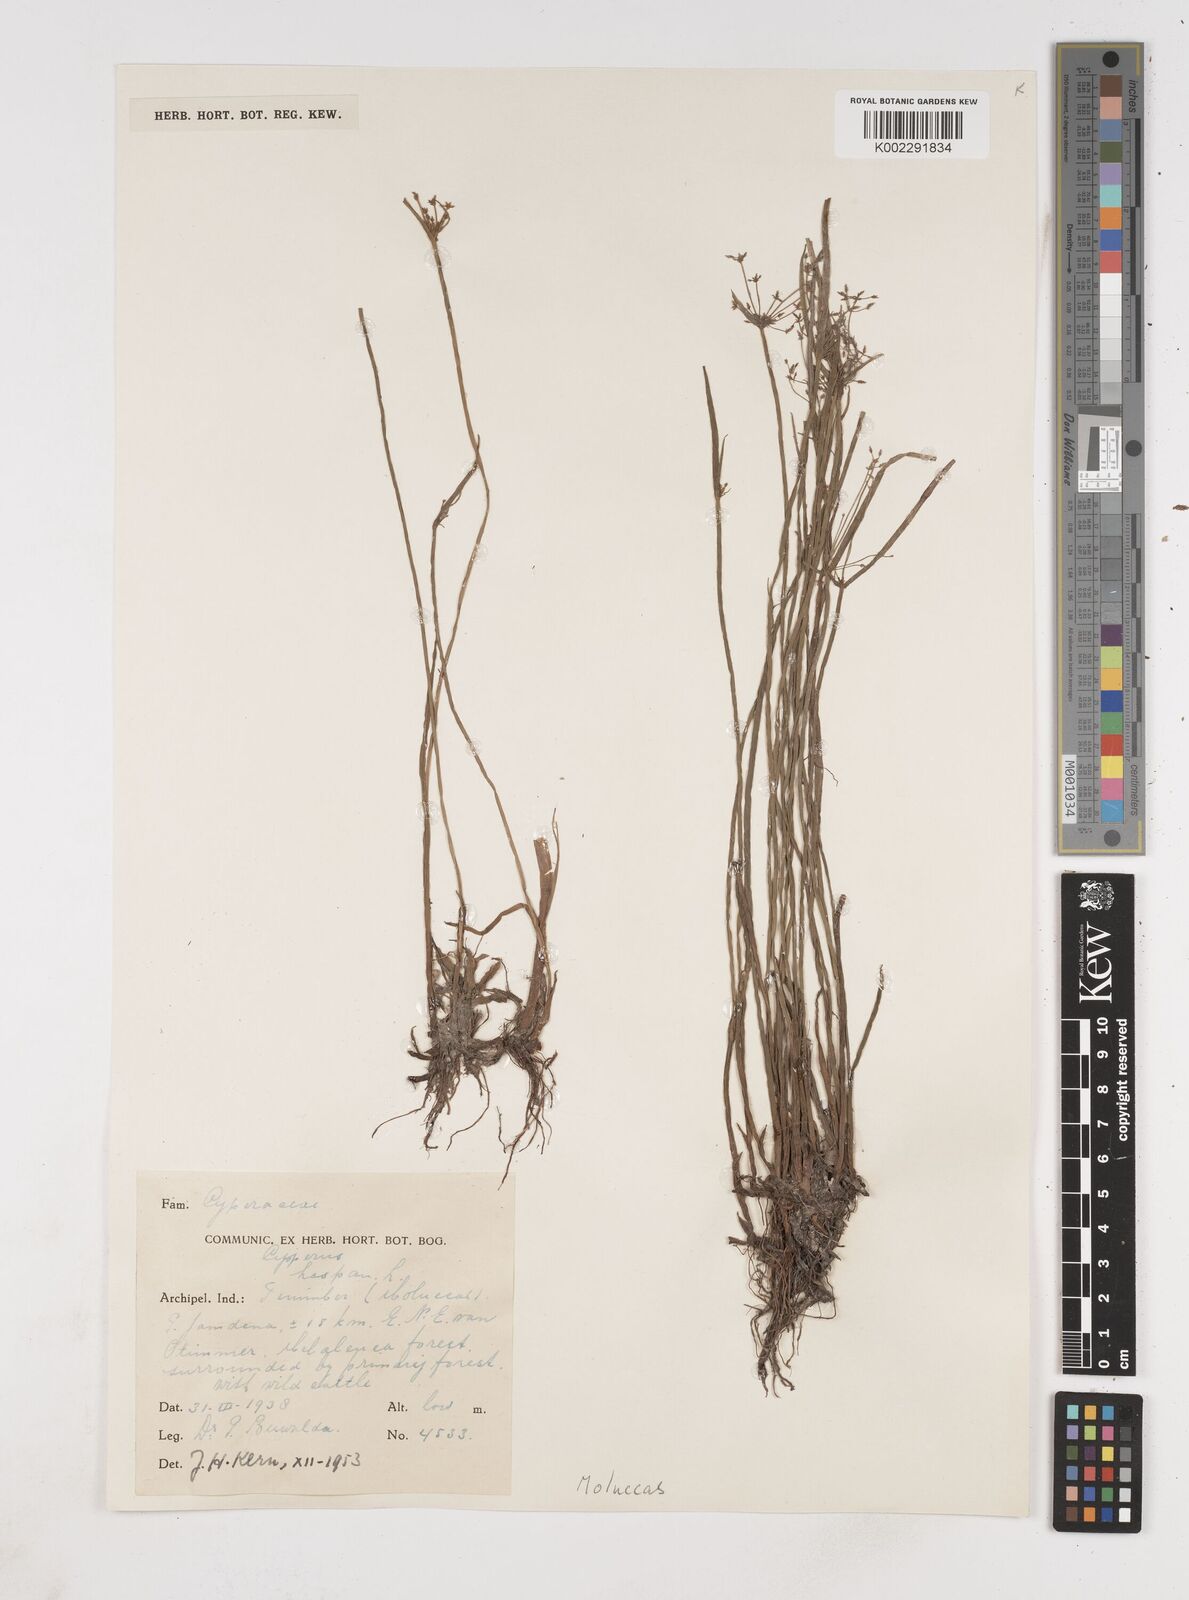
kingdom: Plantae
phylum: Tracheophyta
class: Liliopsida
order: Poales
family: Cyperaceae
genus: Cyperus
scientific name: Cyperus haspan
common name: Haspan flatsedge
